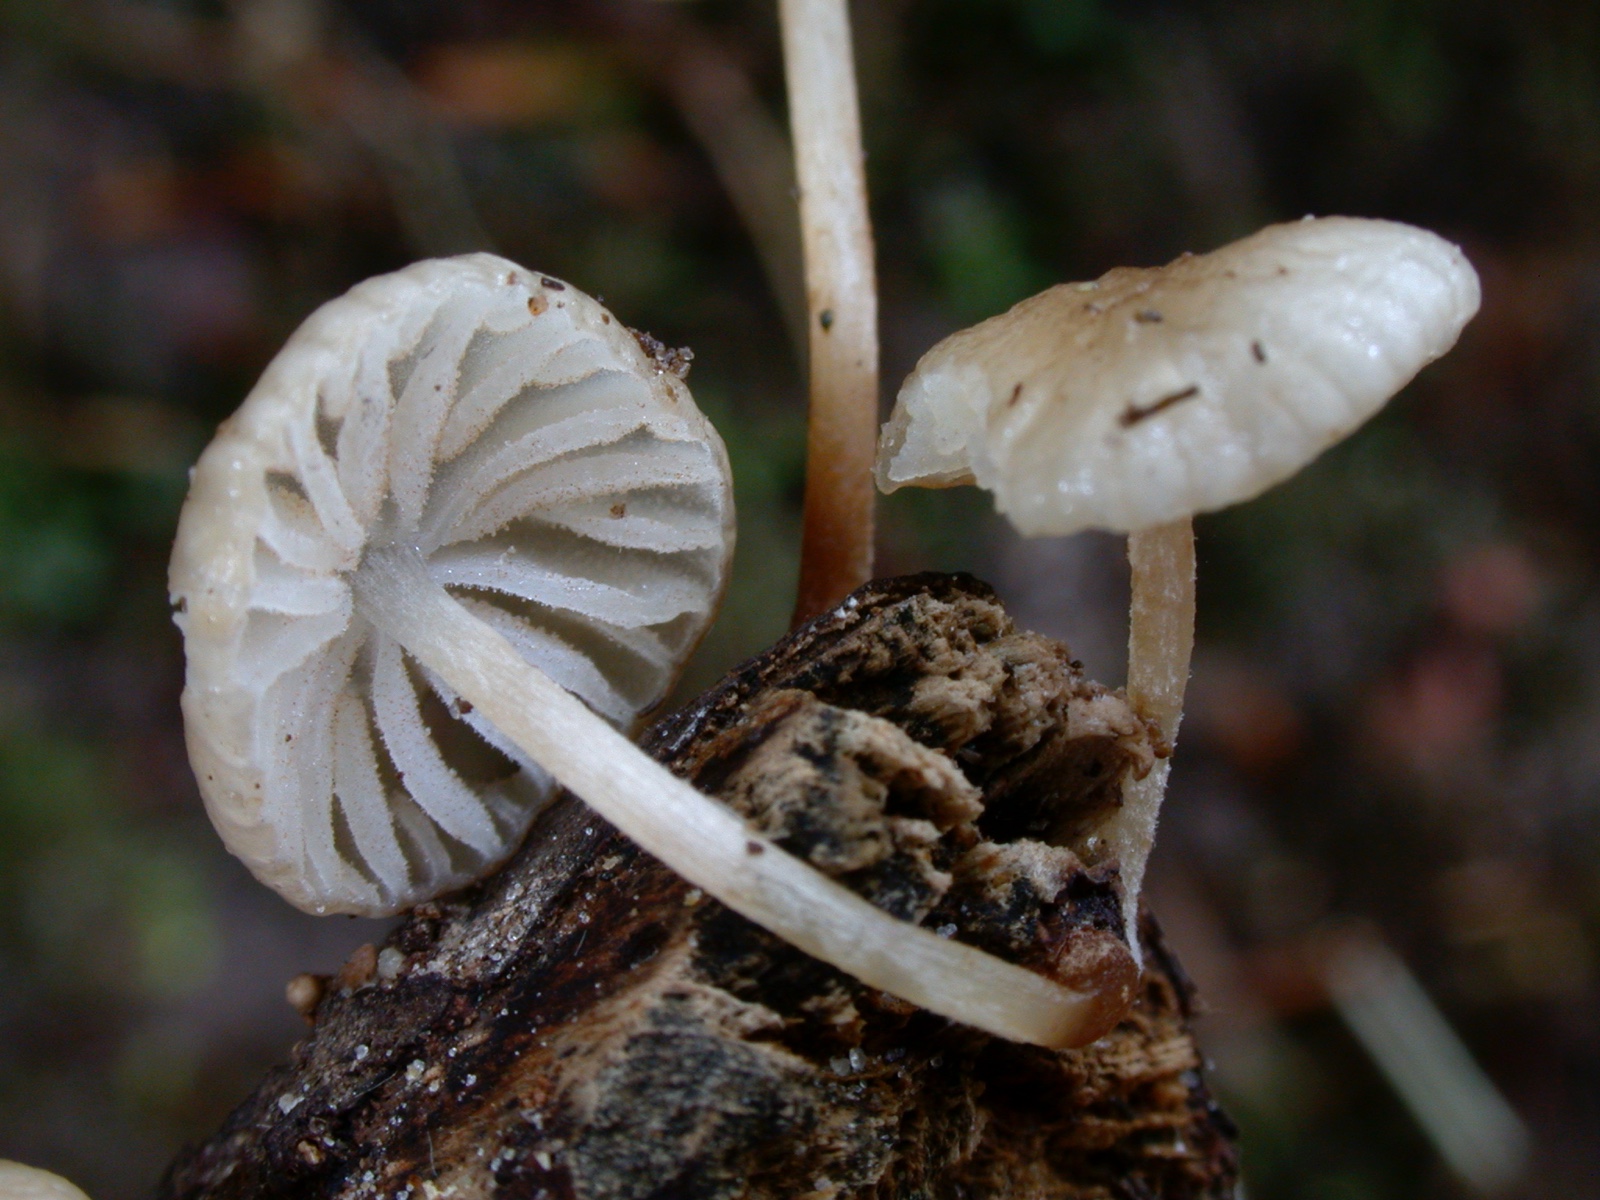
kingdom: Fungi
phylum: Basidiomycota
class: Agaricomycetes
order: Agaricales
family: Physalacriaceae
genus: Hymenopellis
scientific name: Hymenopellis radicata
